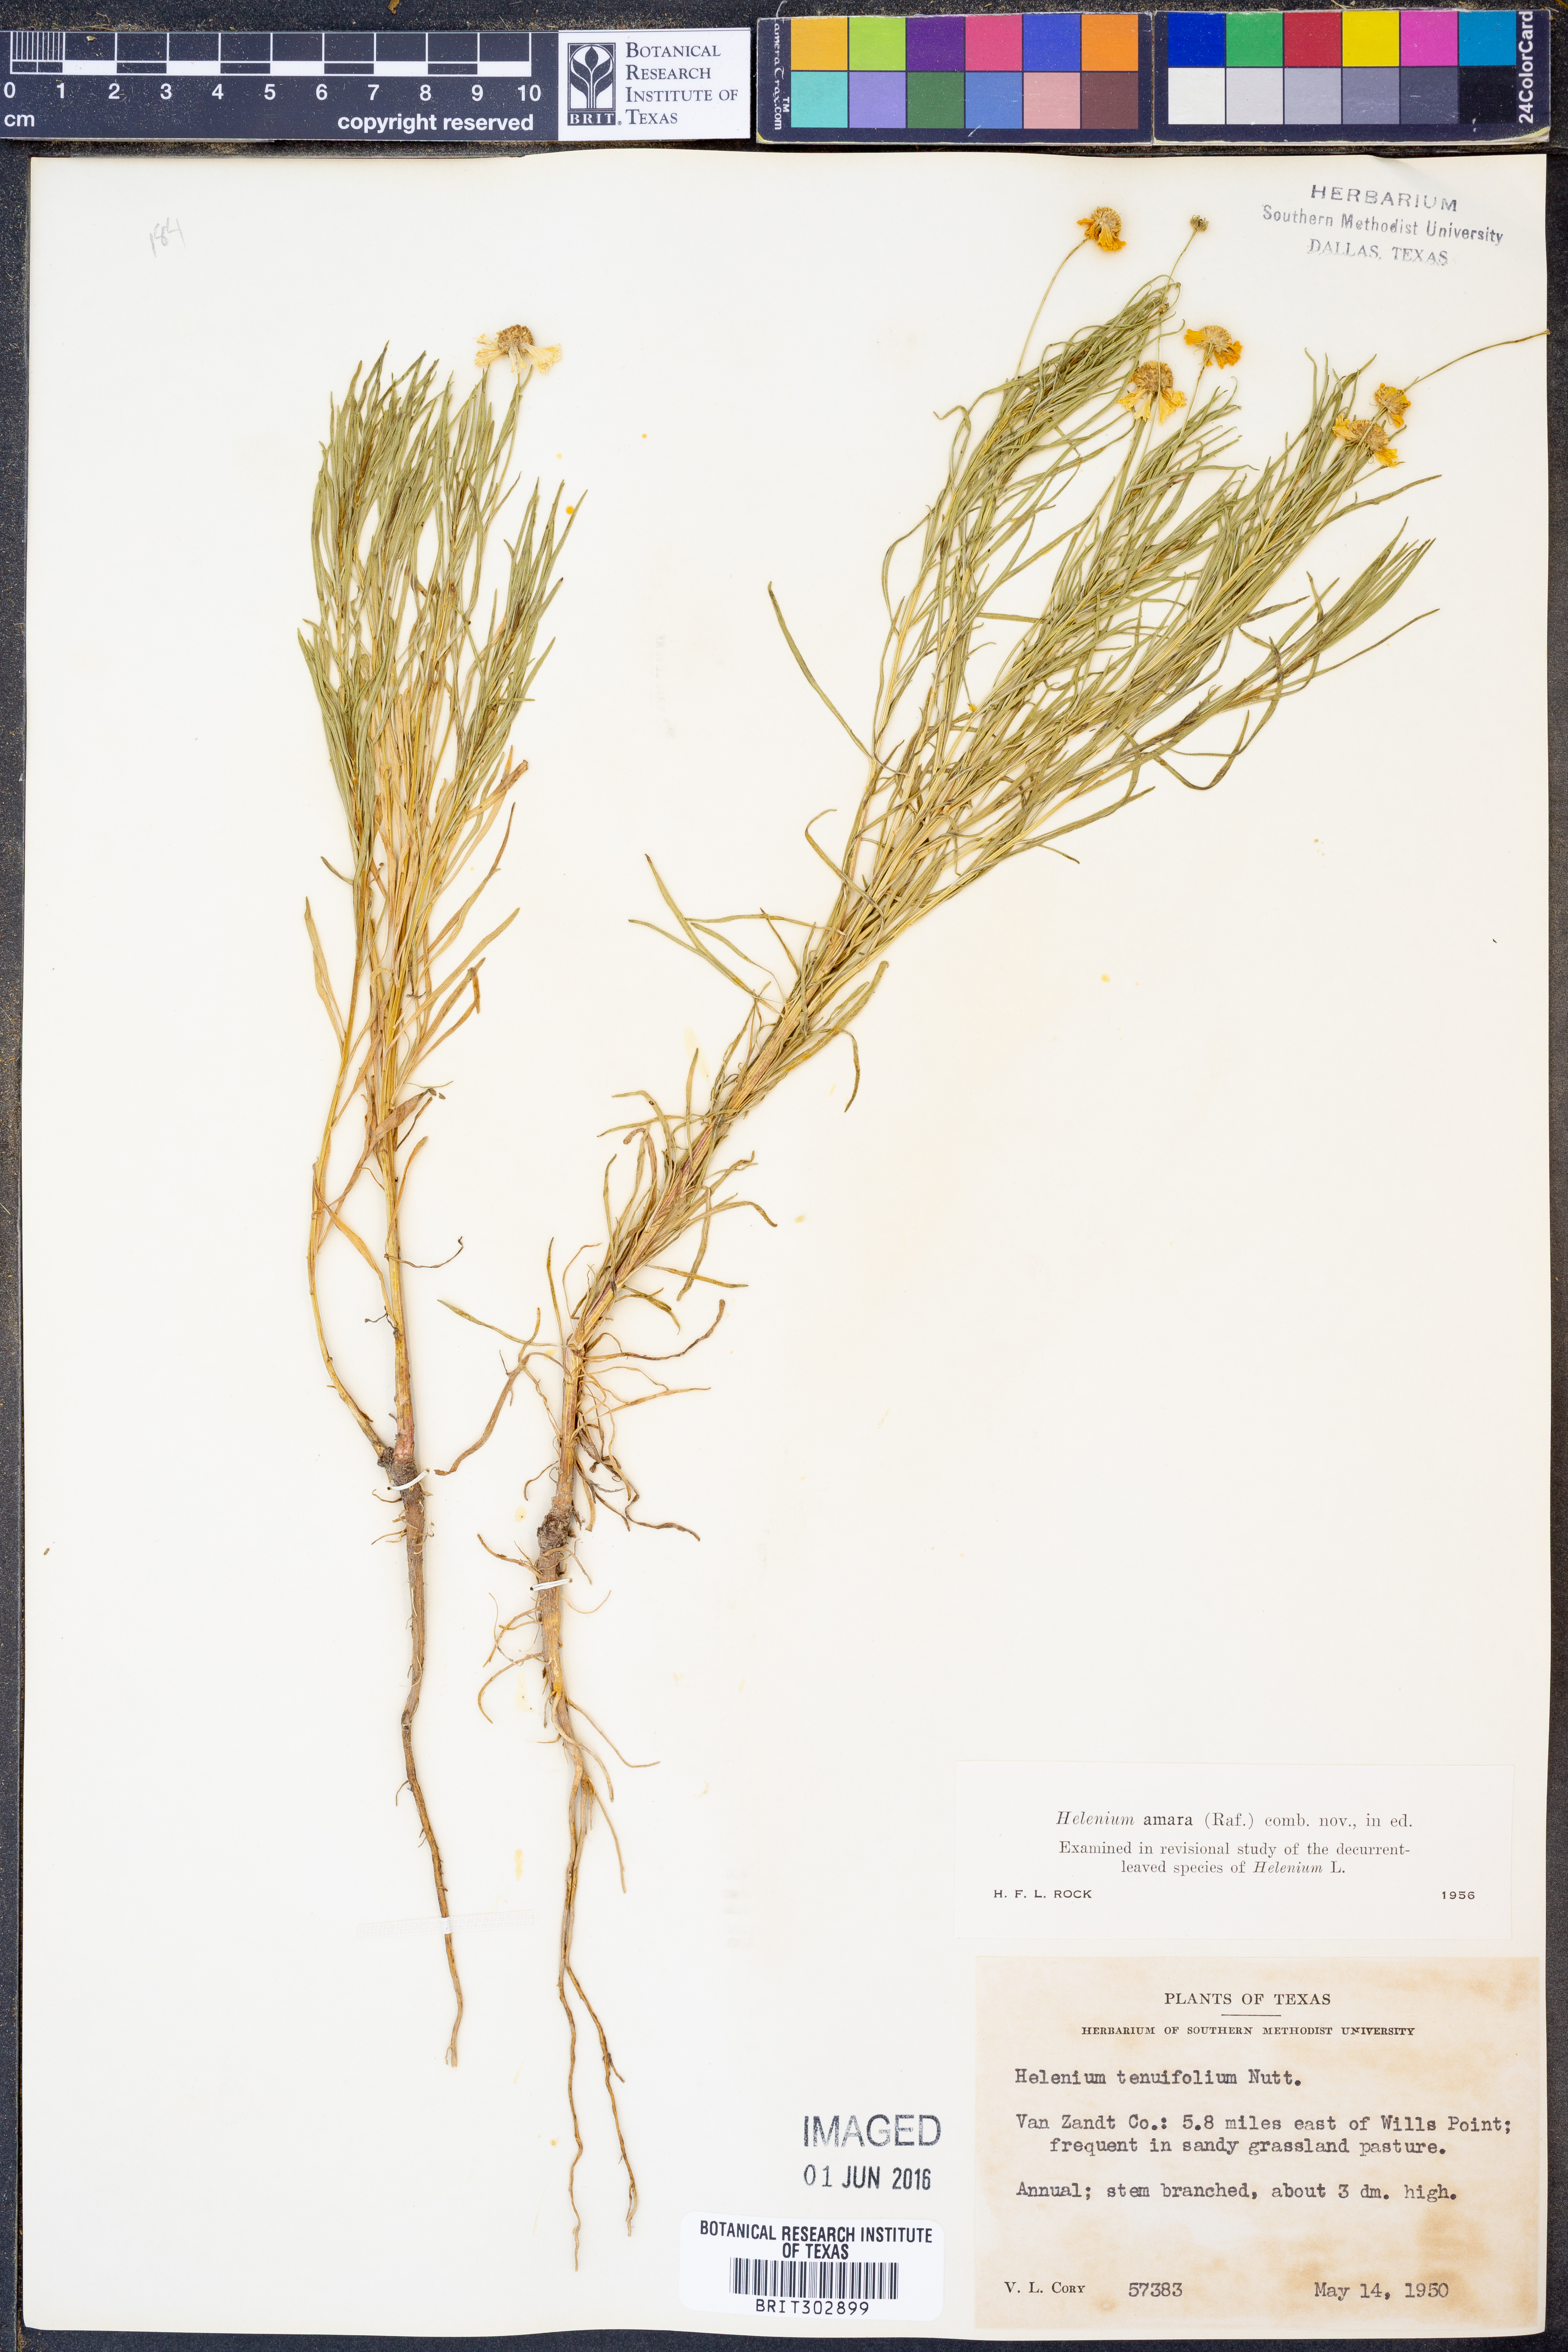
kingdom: Plantae
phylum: Tracheophyta
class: Magnoliopsida
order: Asterales
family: Asteraceae
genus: Helenium
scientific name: Helenium amarum
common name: Bitter sneezeweed
